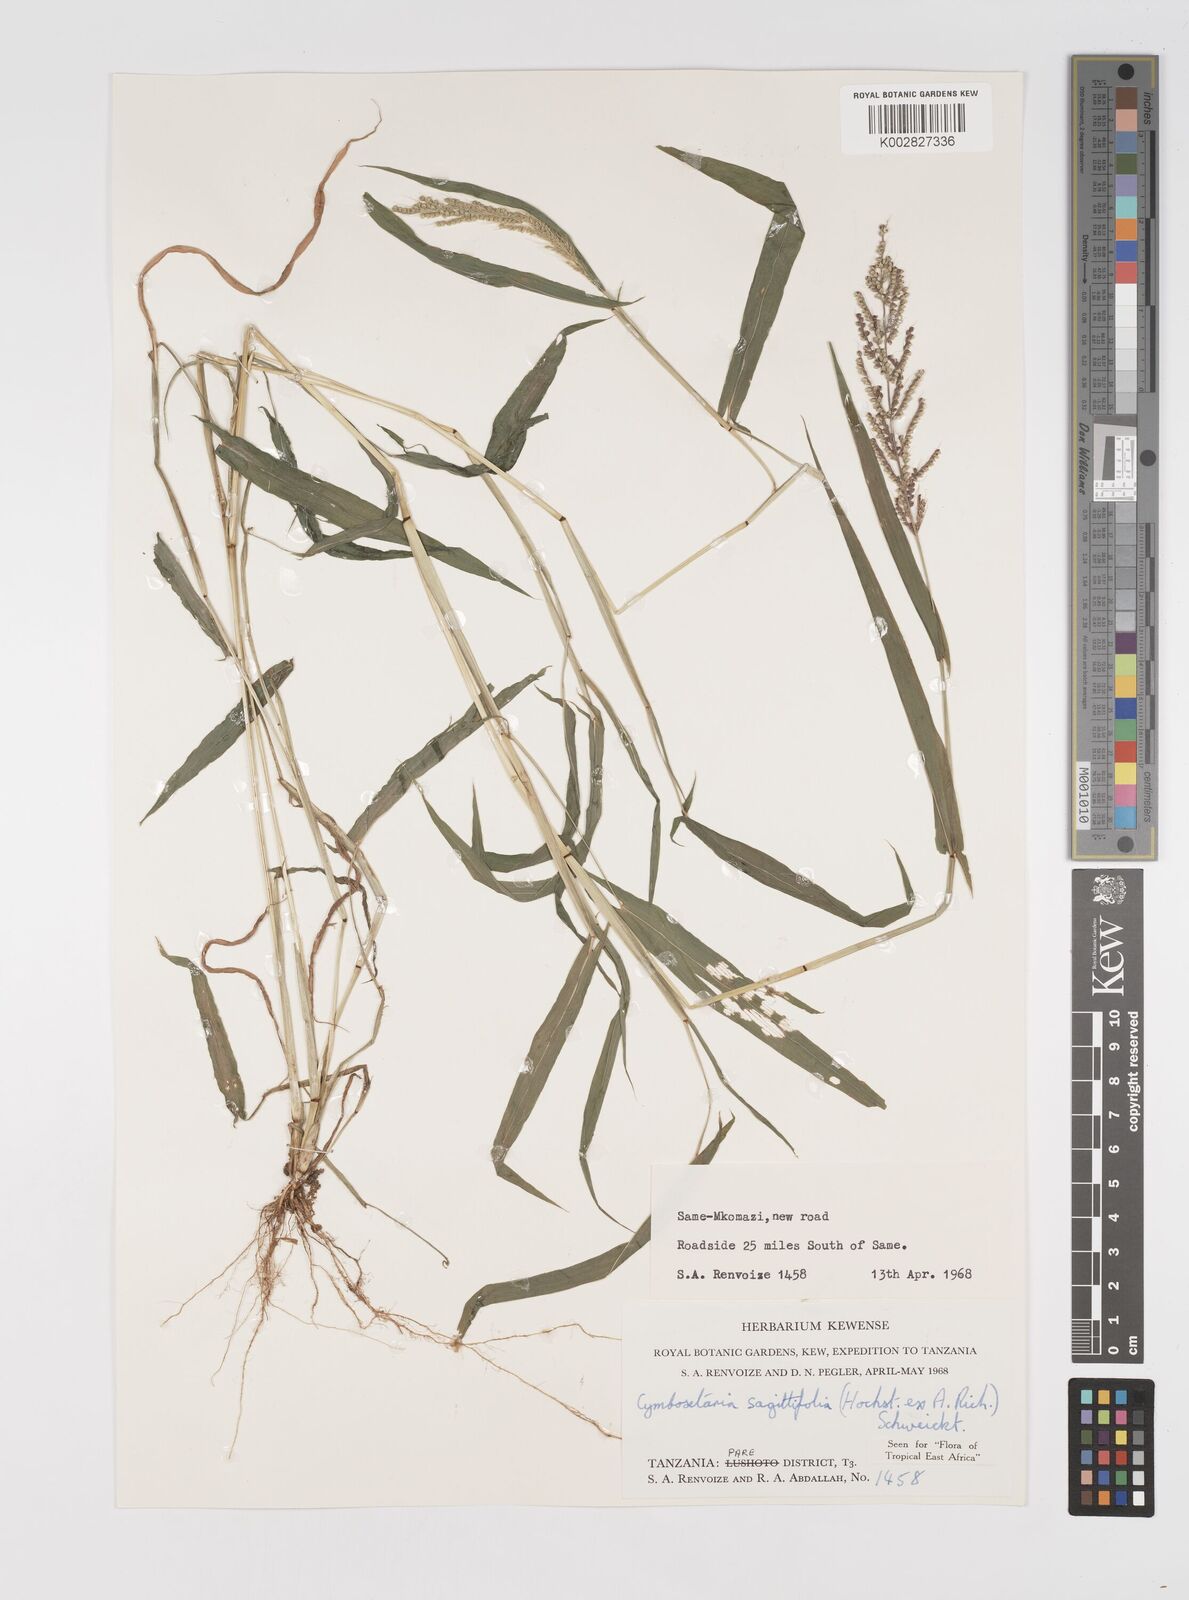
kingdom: Plantae
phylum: Tracheophyta
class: Liliopsida
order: Poales
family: Poaceae
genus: Setaria
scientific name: Setaria sagittifolia
